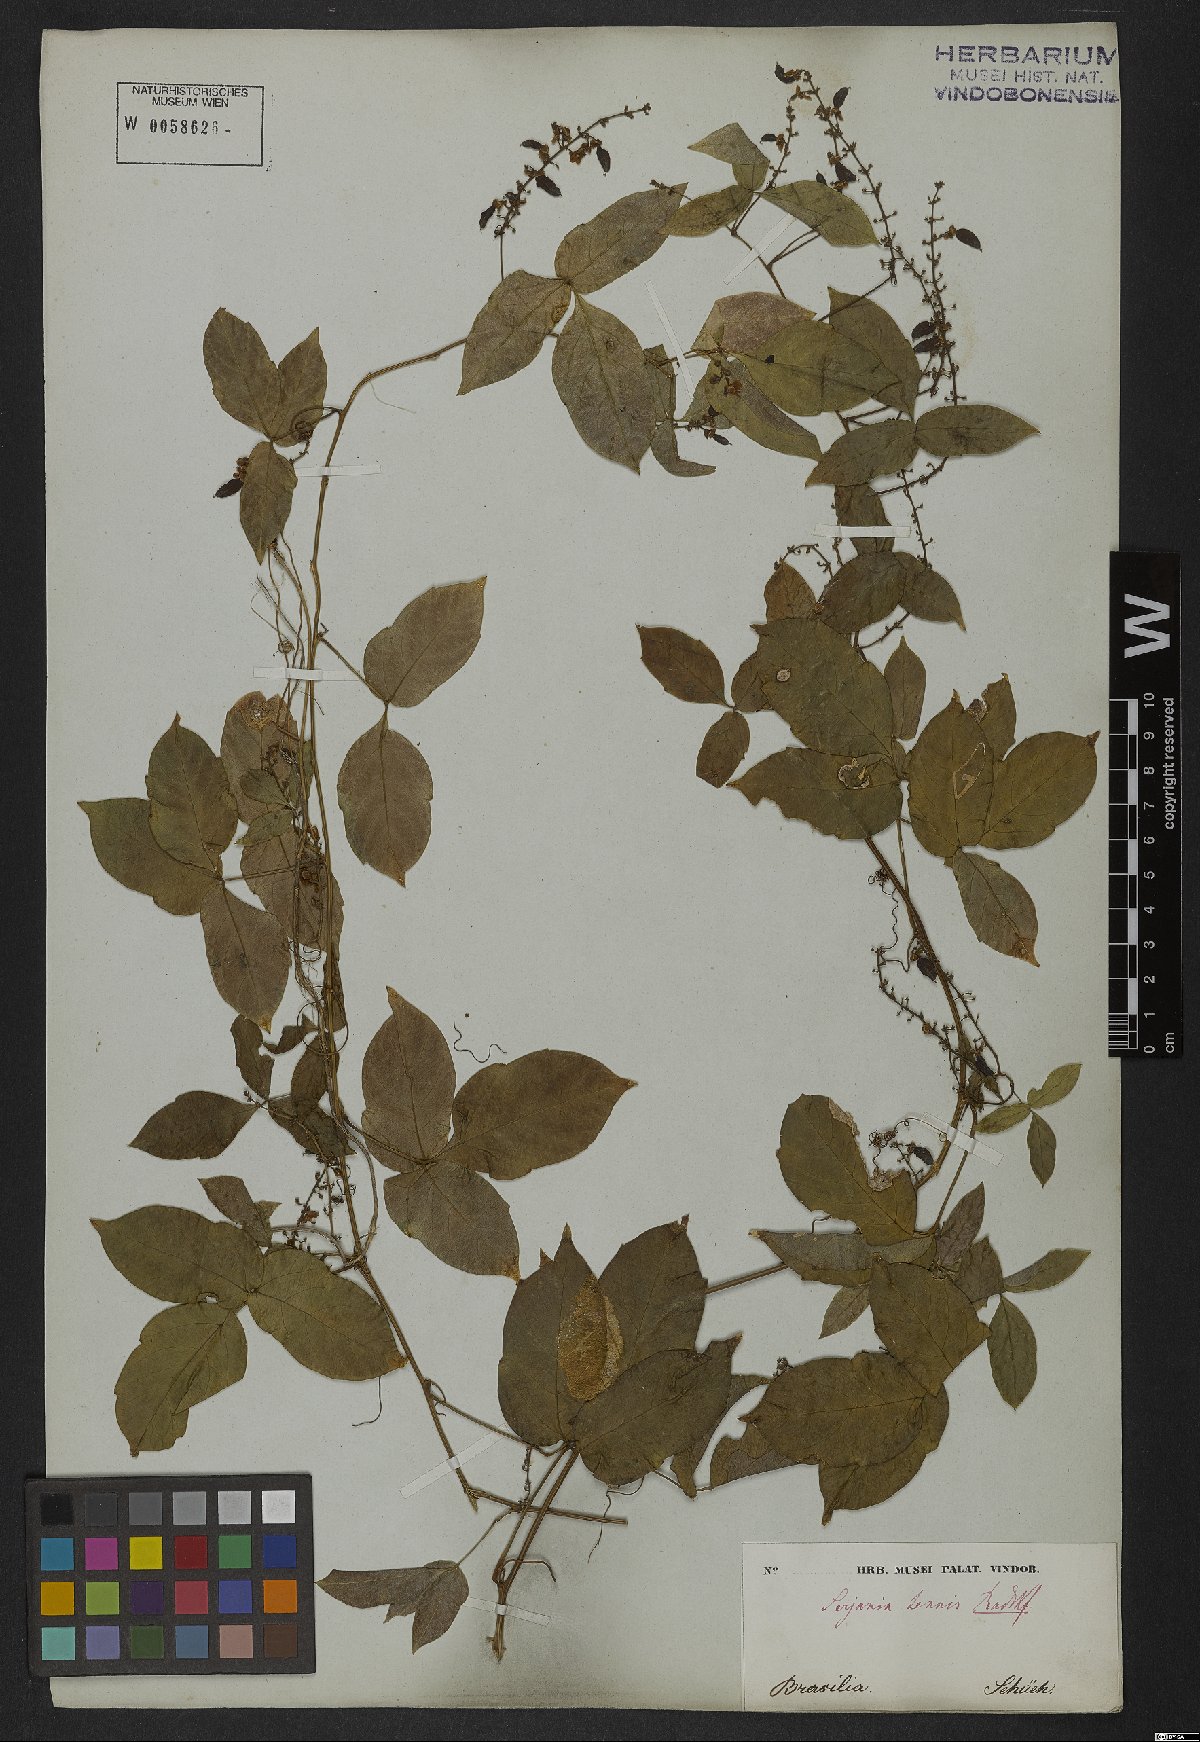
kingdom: Plantae
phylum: Tracheophyta
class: Magnoliopsida
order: Sapindales
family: Sapindaceae
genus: Serjania
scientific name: Serjania tenuis
